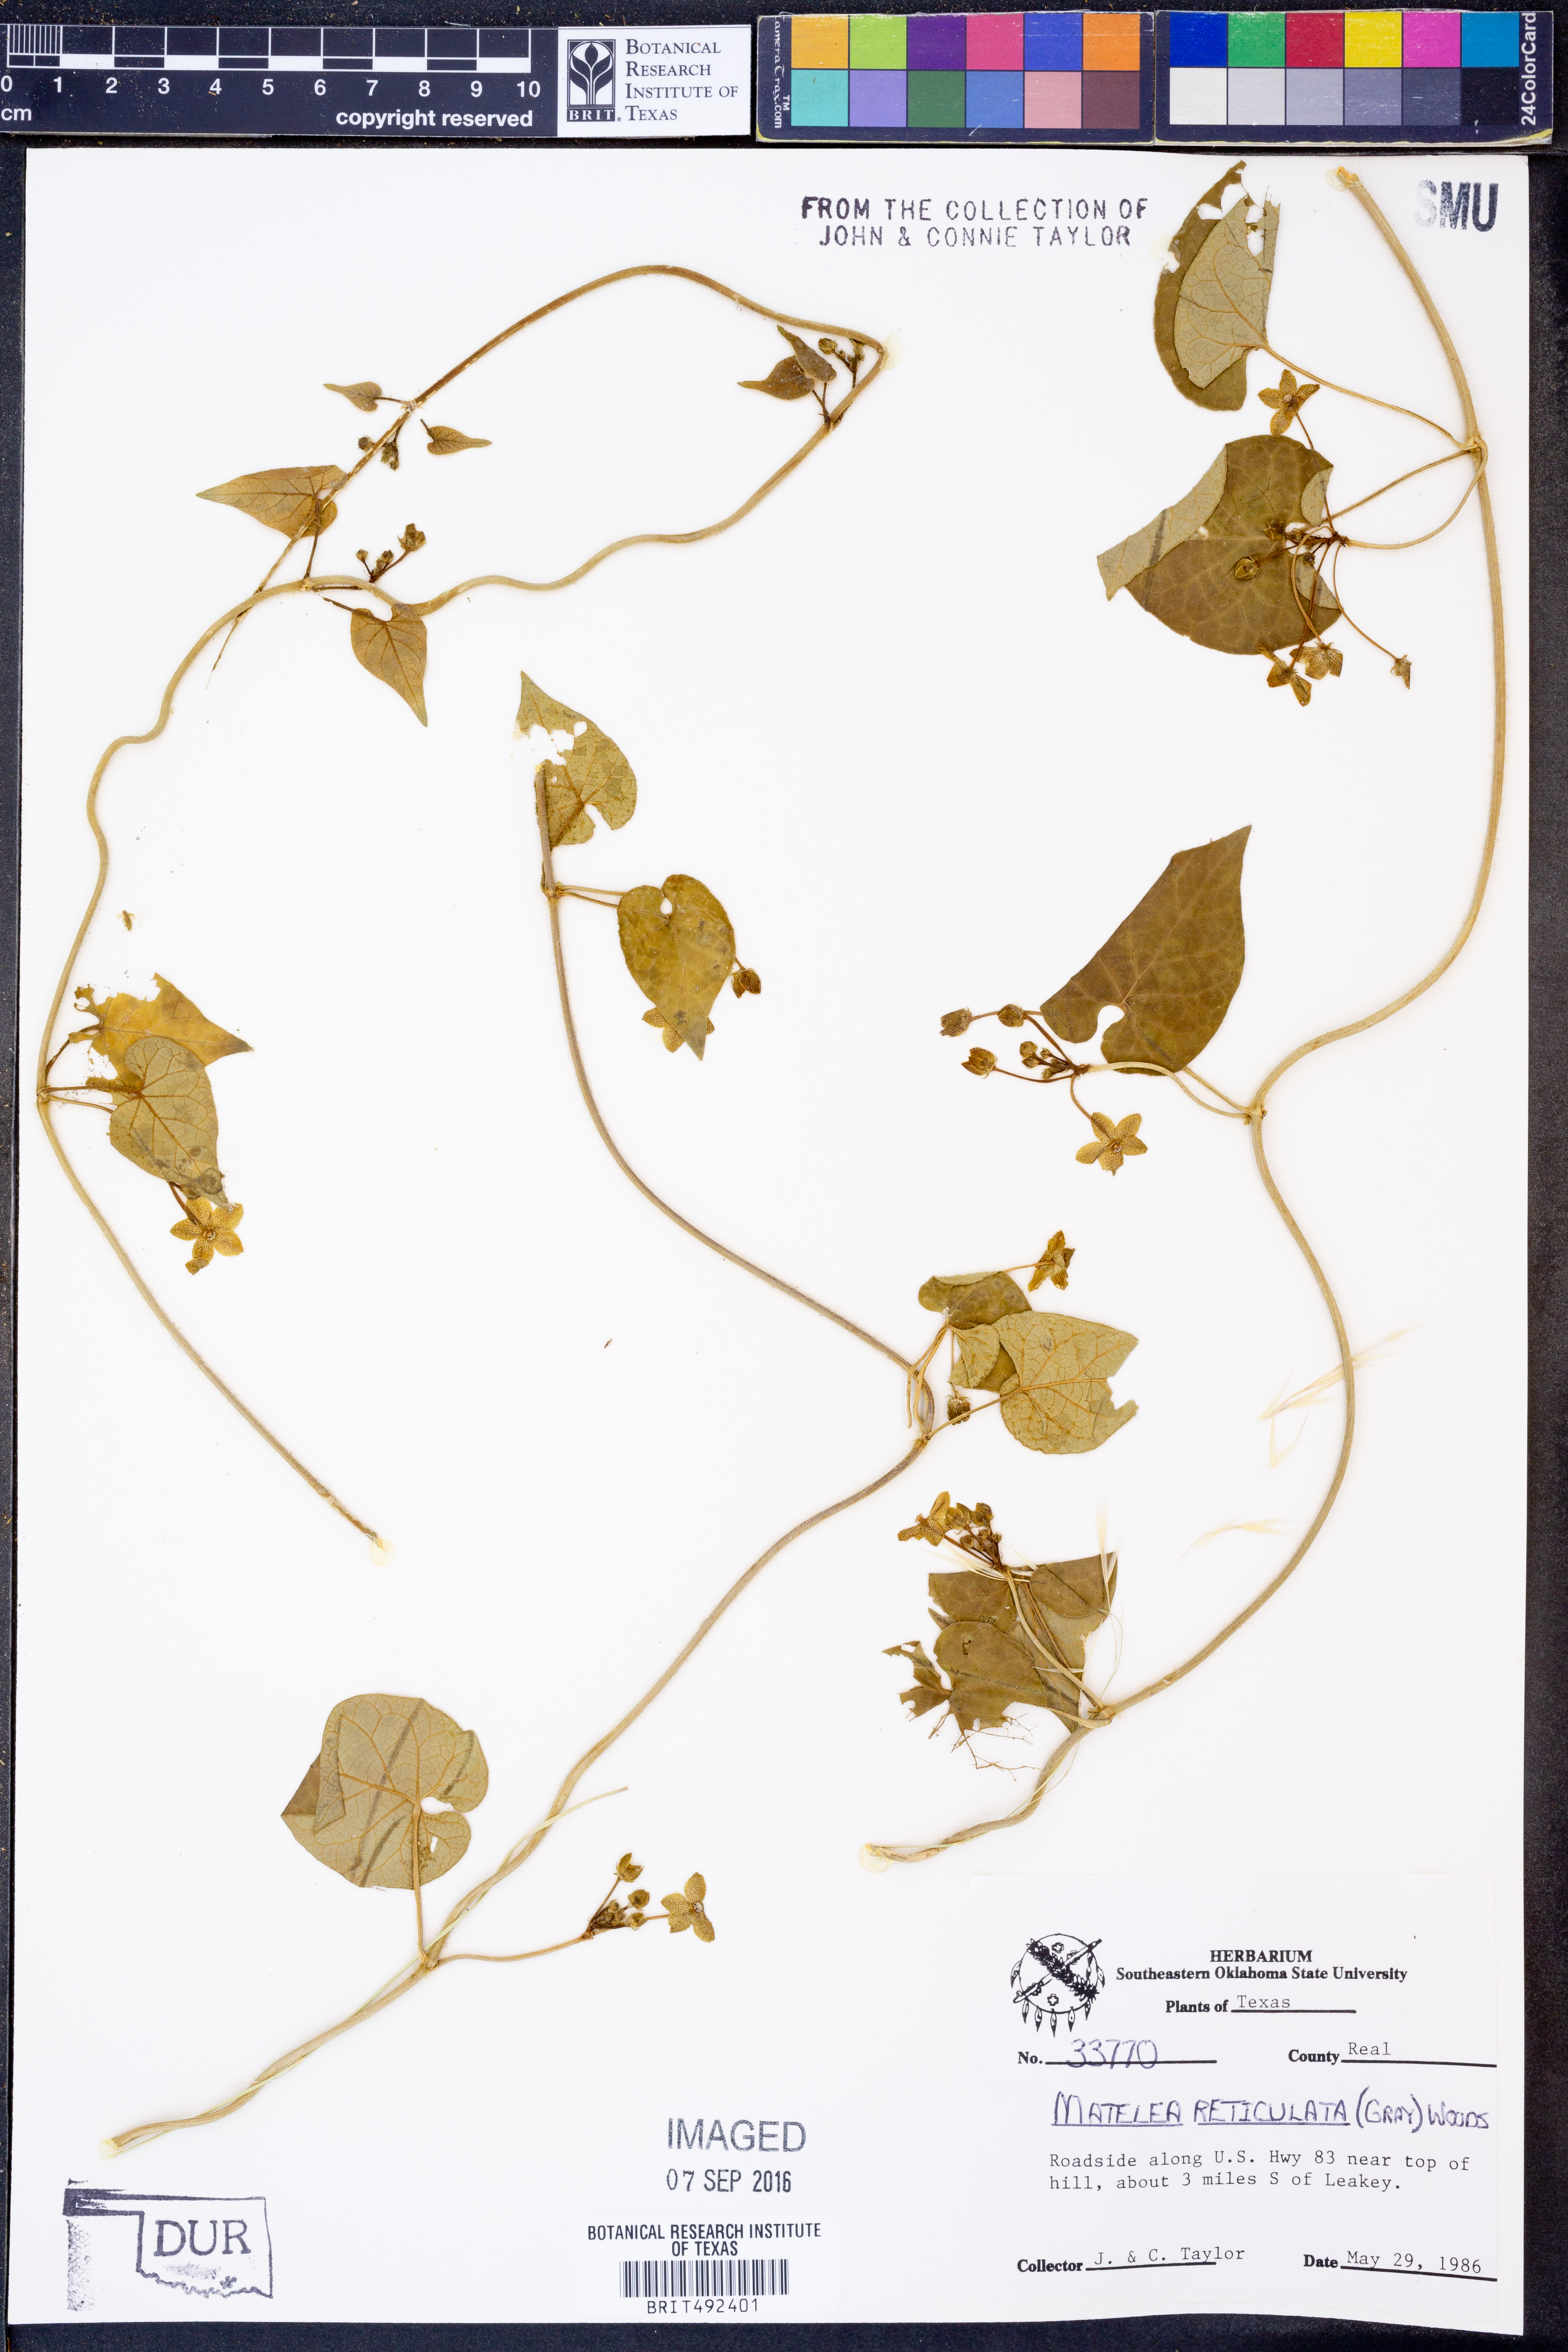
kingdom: Plantae
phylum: Tracheophyta
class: Magnoliopsida
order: Gentianales
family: Apocynaceae
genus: Dictyanthus
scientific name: Dictyanthus reticulatus
